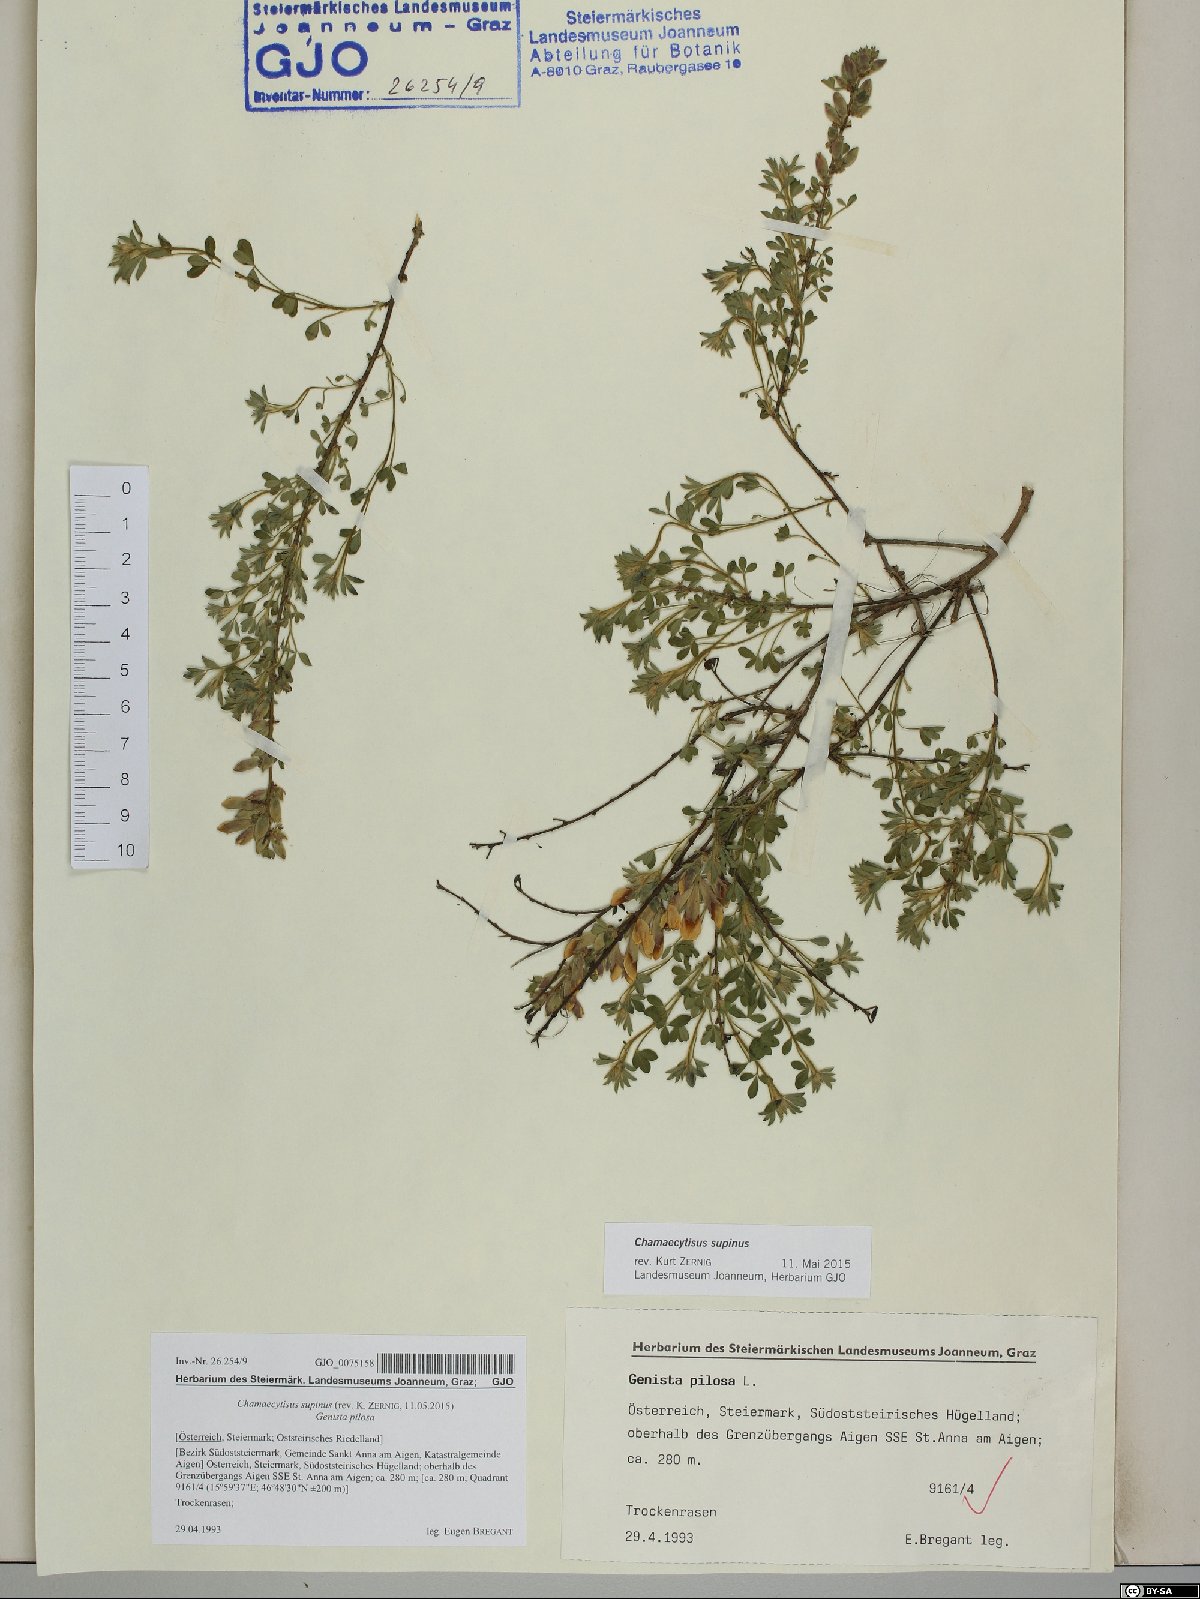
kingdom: Plantae
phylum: Tracheophyta
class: Magnoliopsida
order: Fabales
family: Fabaceae
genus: Chamaecytisus
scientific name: Chamaecytisus supinus
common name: Clustered broom
